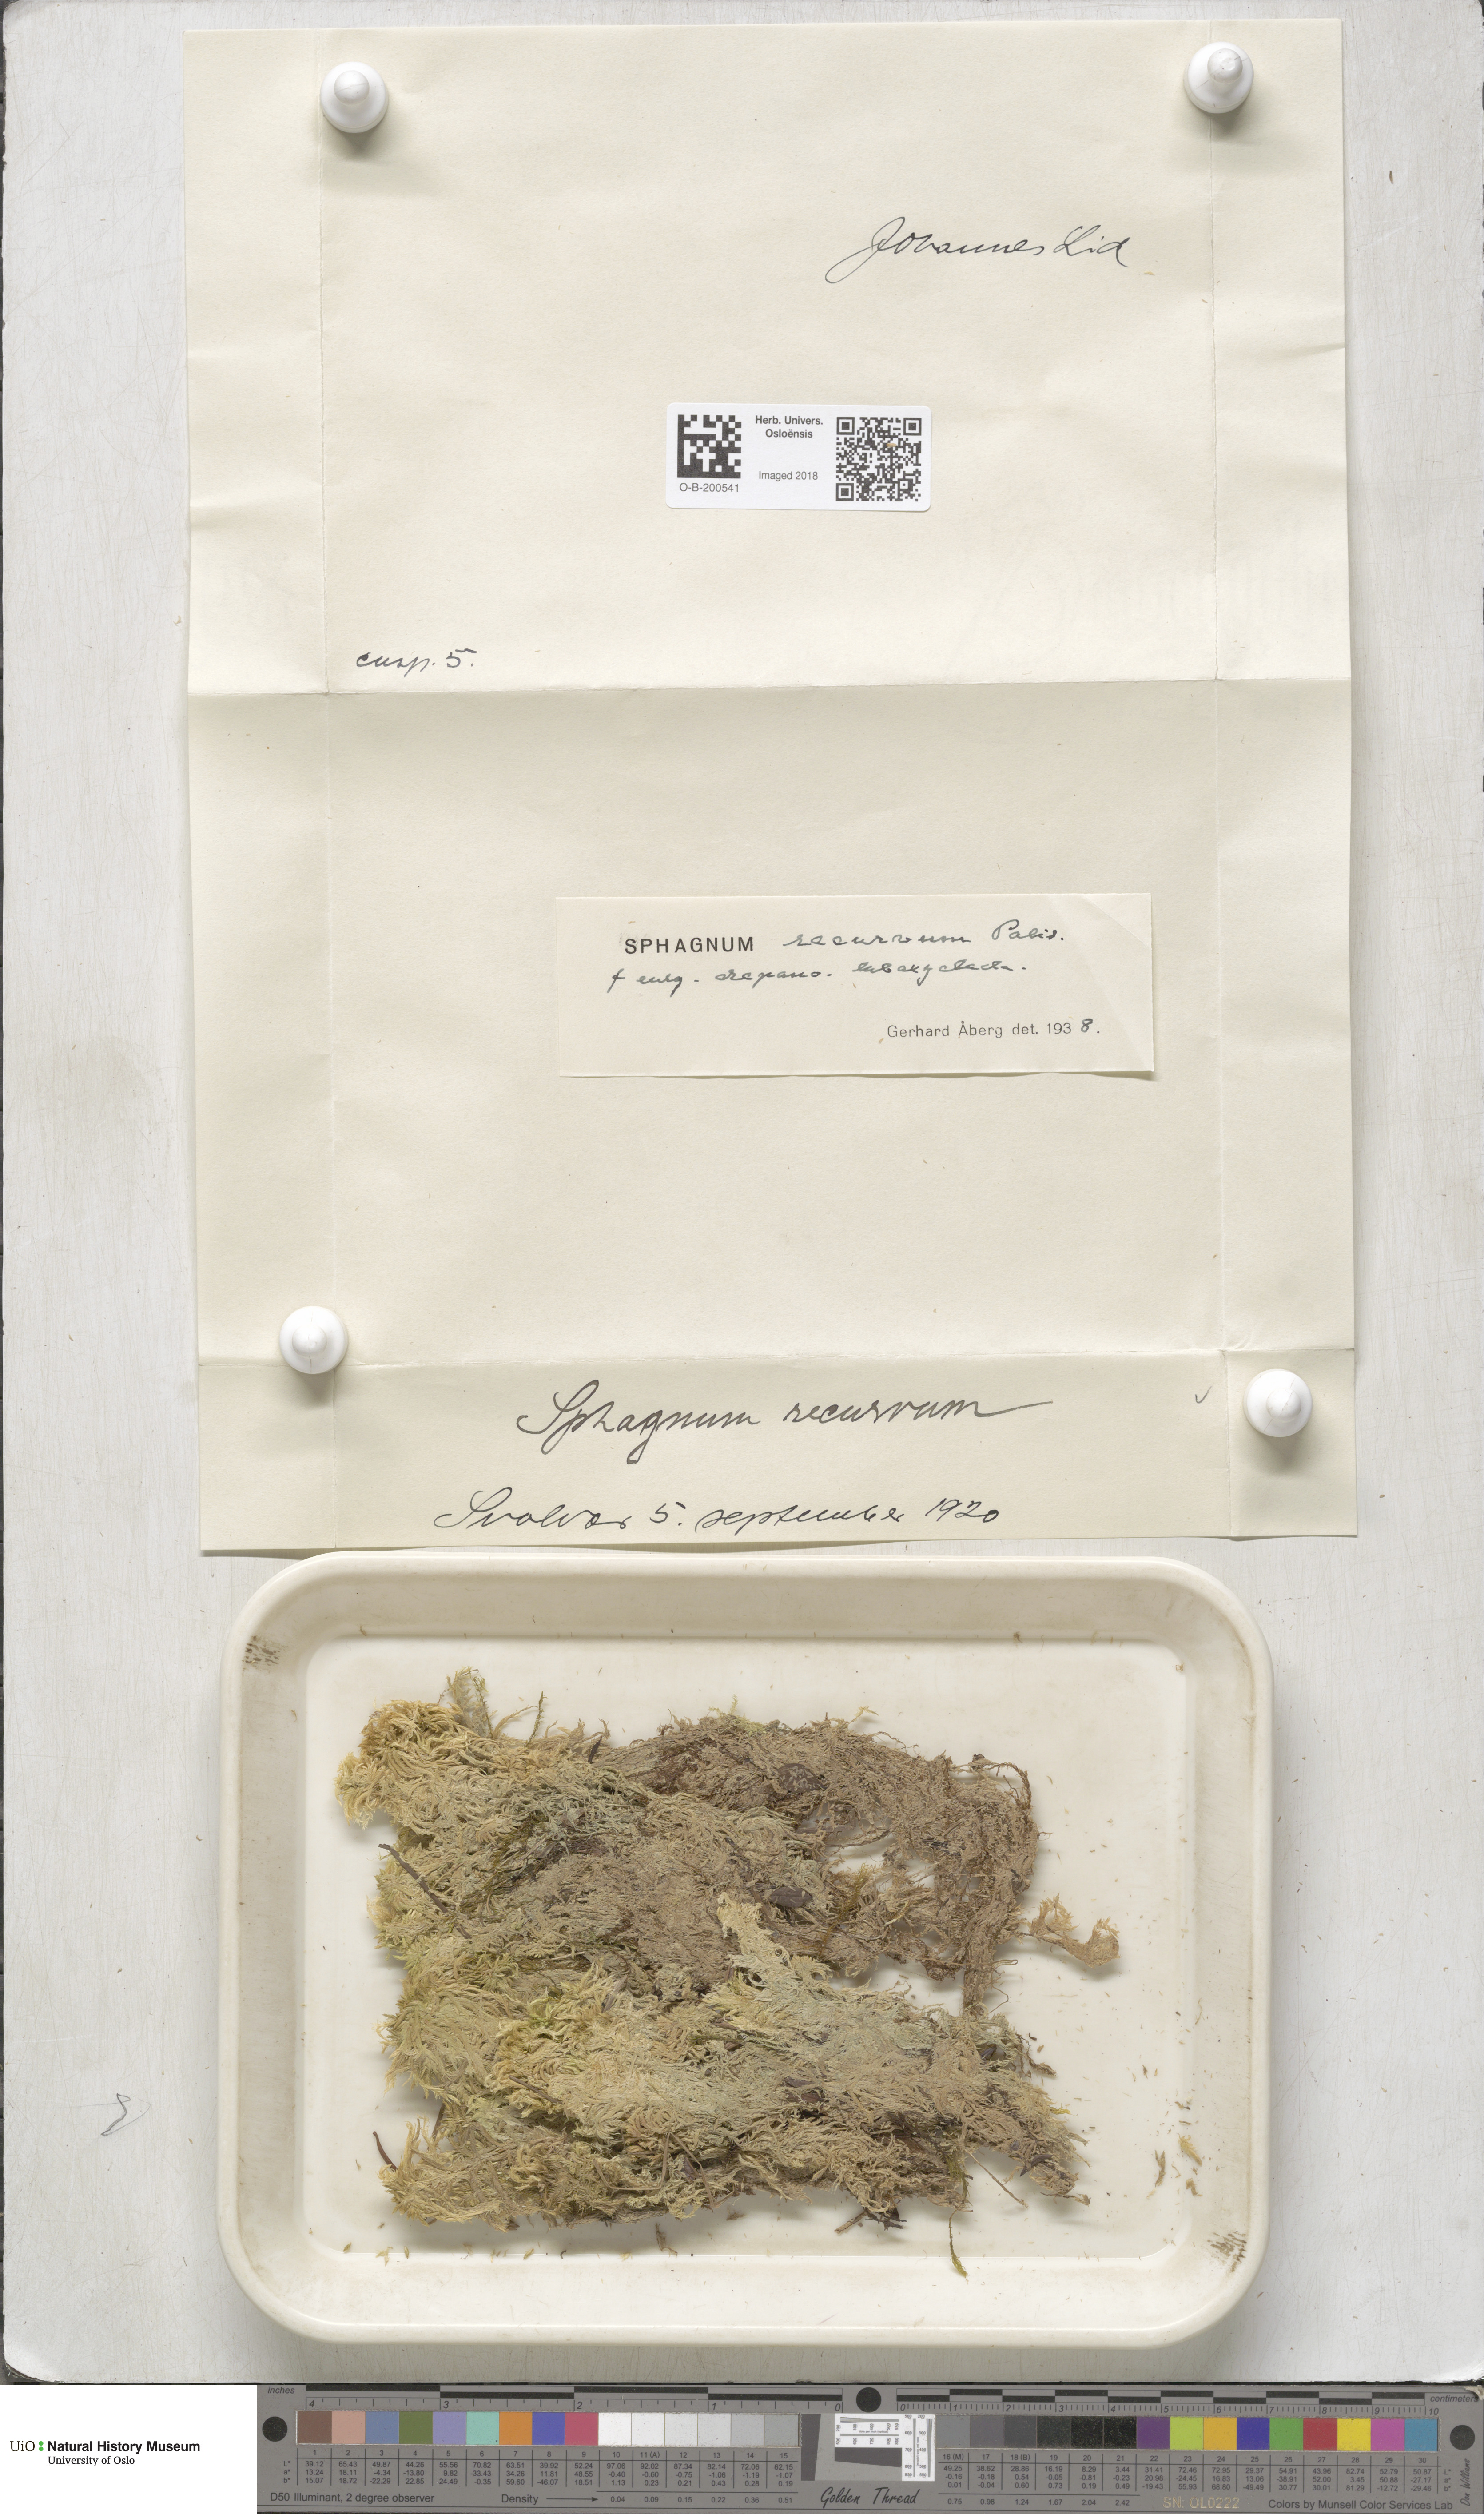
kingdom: Plantae
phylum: Bryophyta
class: Sphagnopsida
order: Sphagnales
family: Sphagnaceae
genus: Sphagnum
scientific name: Sphagnum fallax
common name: Flat-top peat moss
